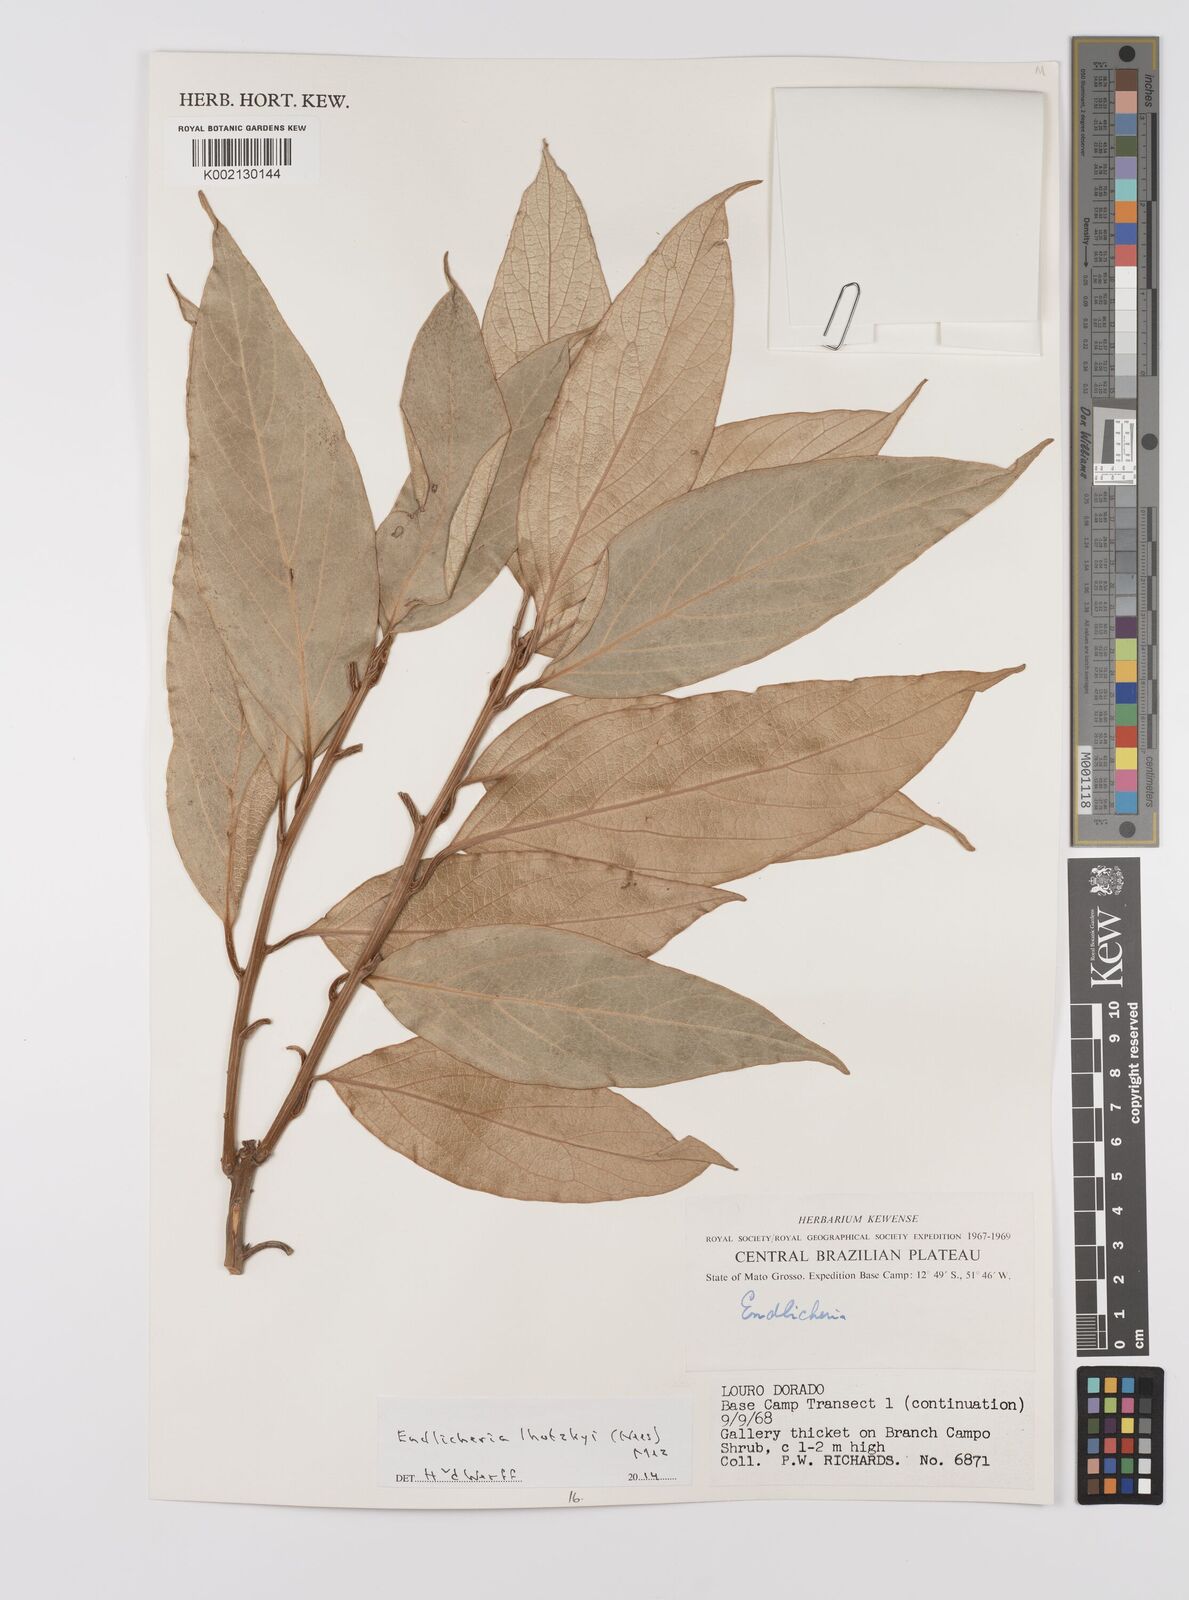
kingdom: Plantae
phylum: Tracheophyta
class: Magnoliopsida
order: Laurales
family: Lauraceae
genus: Endlicheria
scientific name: Endlicheria lhotzkyi
